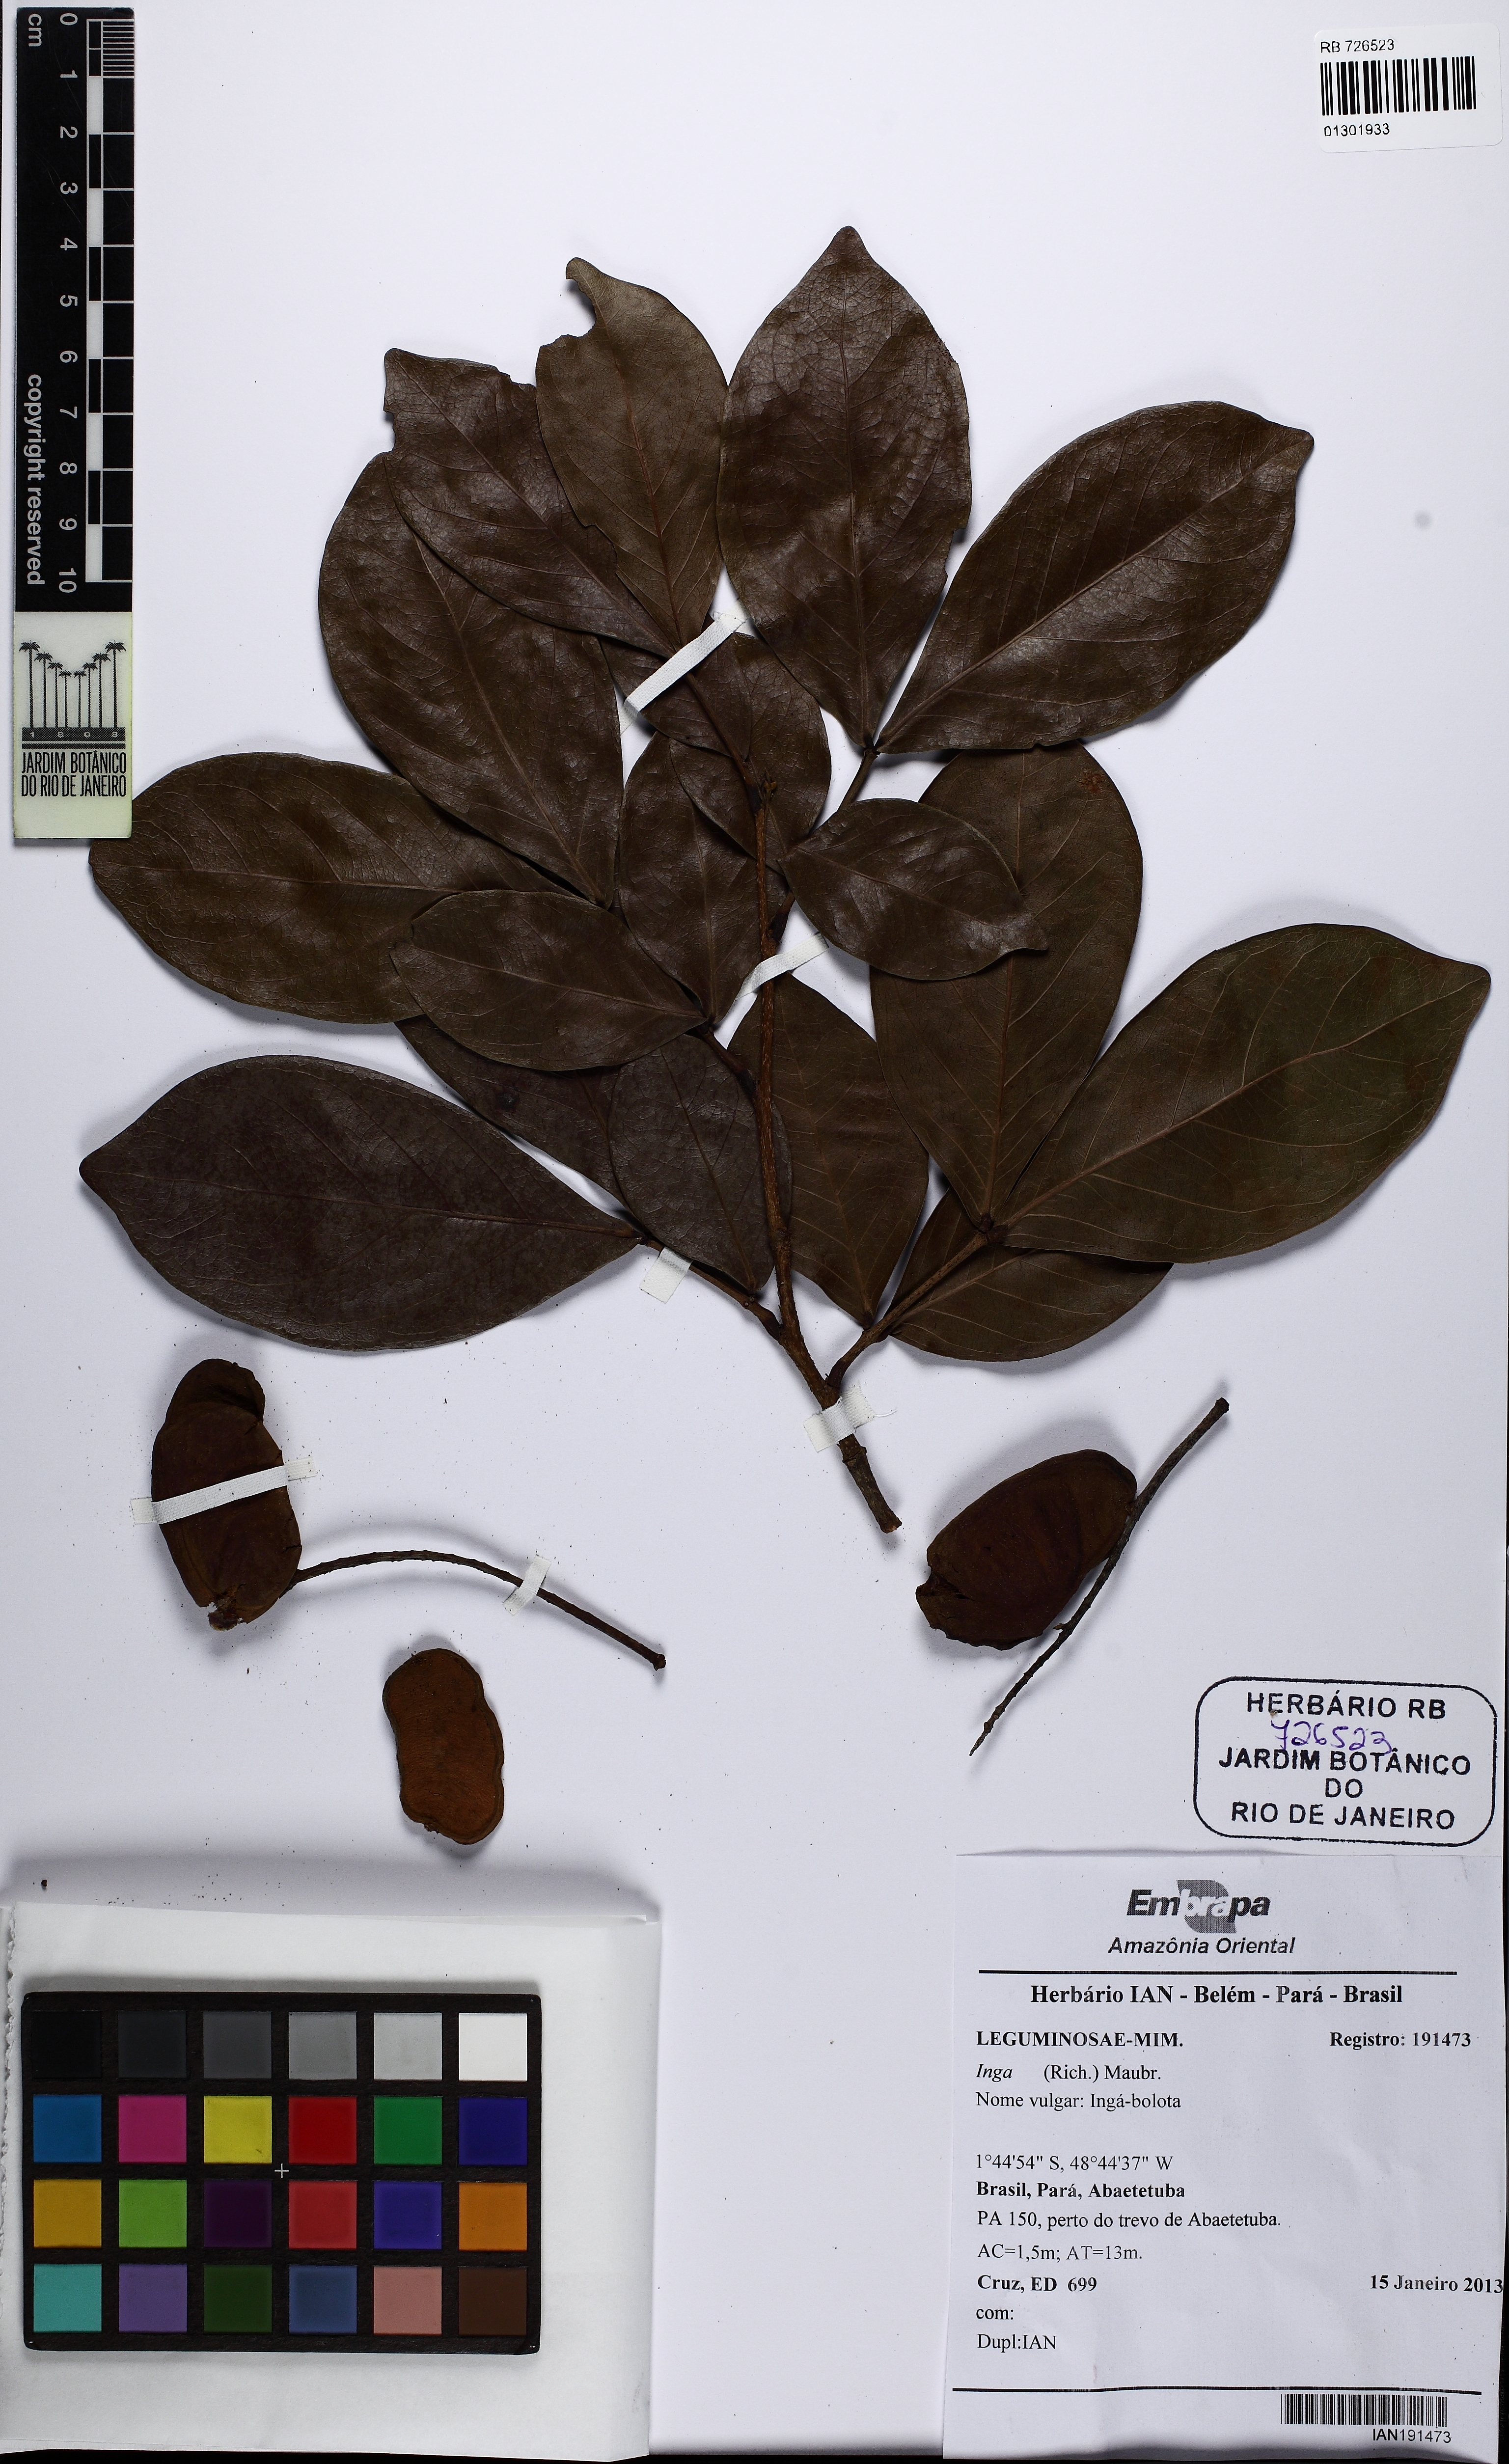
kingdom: Plantae
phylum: Tracheophyta
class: Magnoliopsida
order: Fabales
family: Fabaceae
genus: Inga
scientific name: Inga
